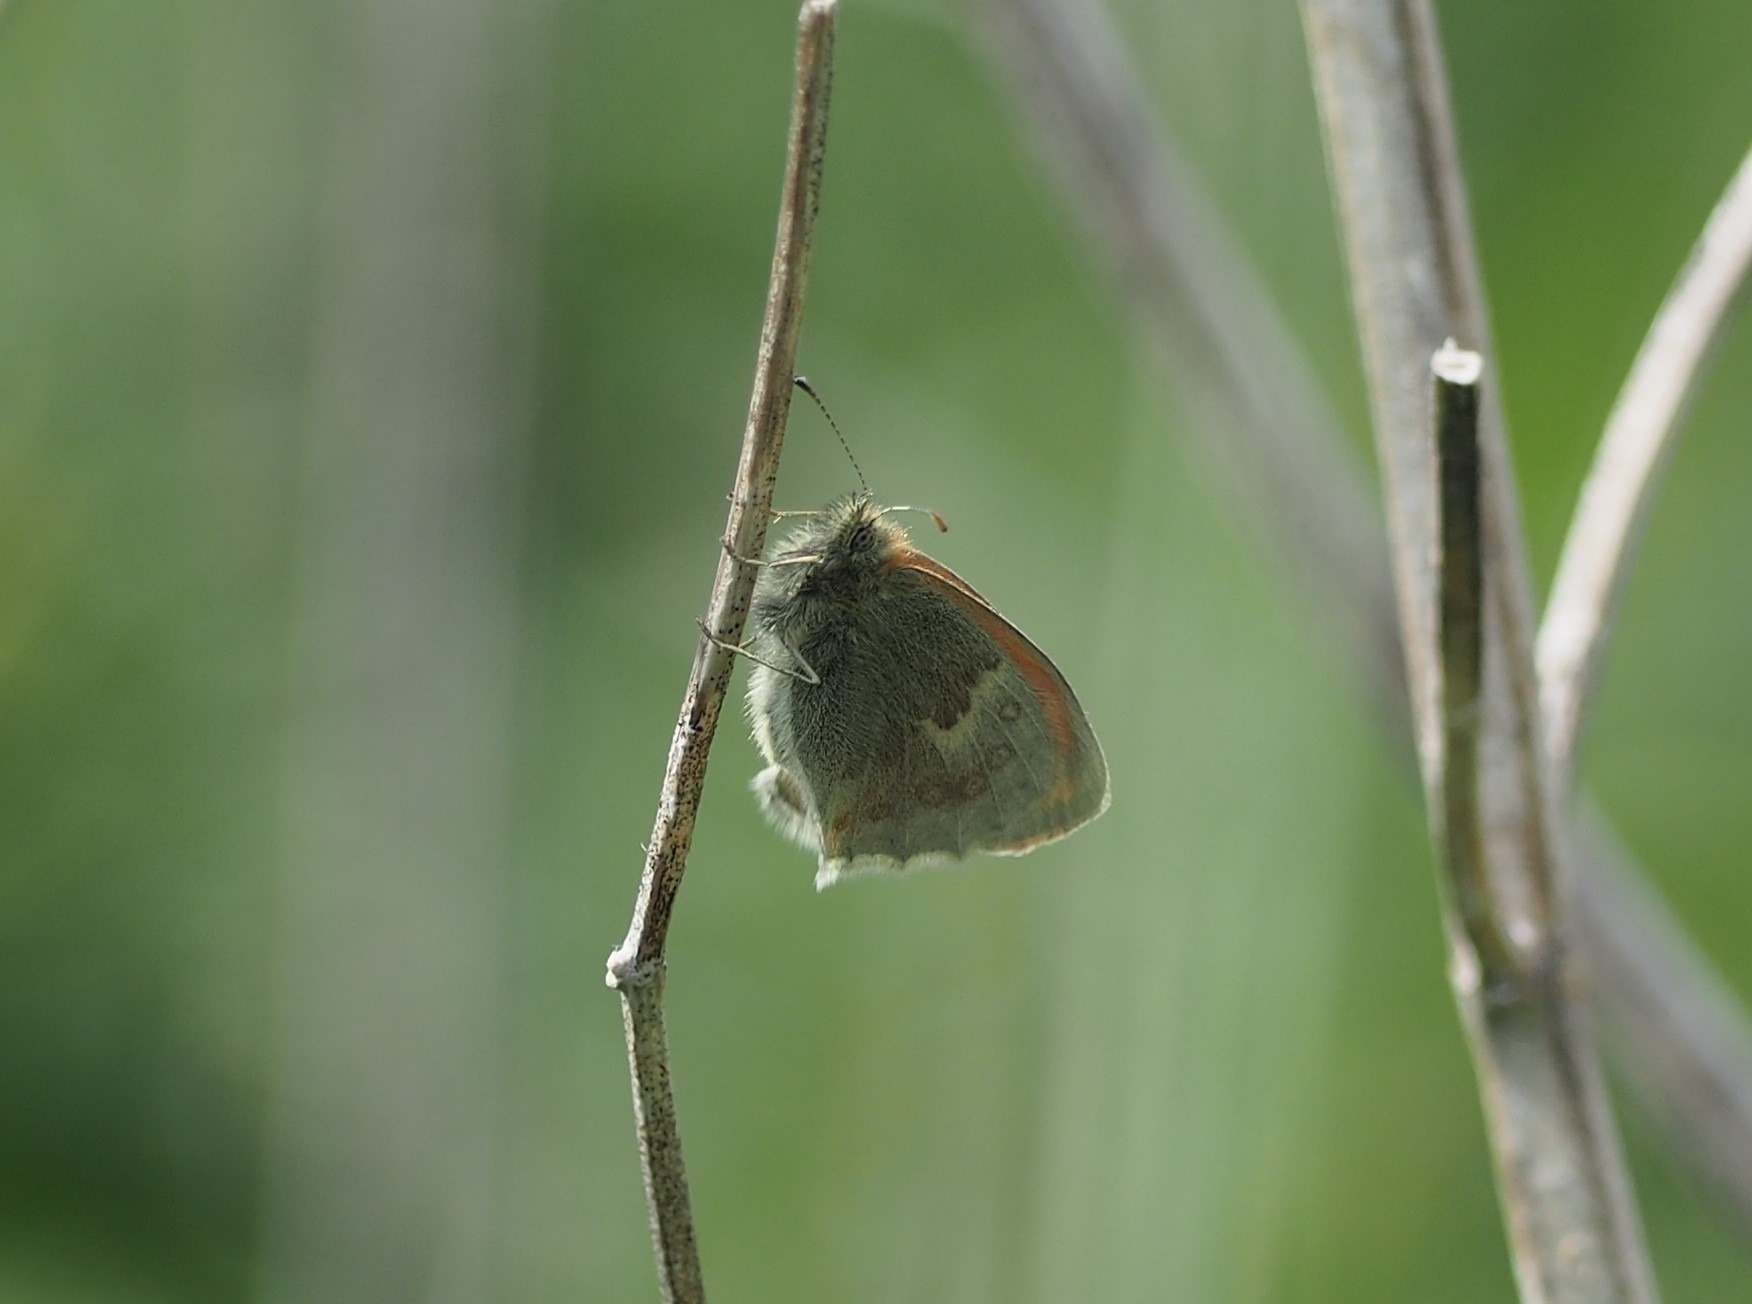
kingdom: Animalia
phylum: Arthropoda
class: Insecta
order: Lepidoptera
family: Nymphalidae
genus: Coenonympha
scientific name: Coenonympha pamphilus
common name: Okkergul randøje
